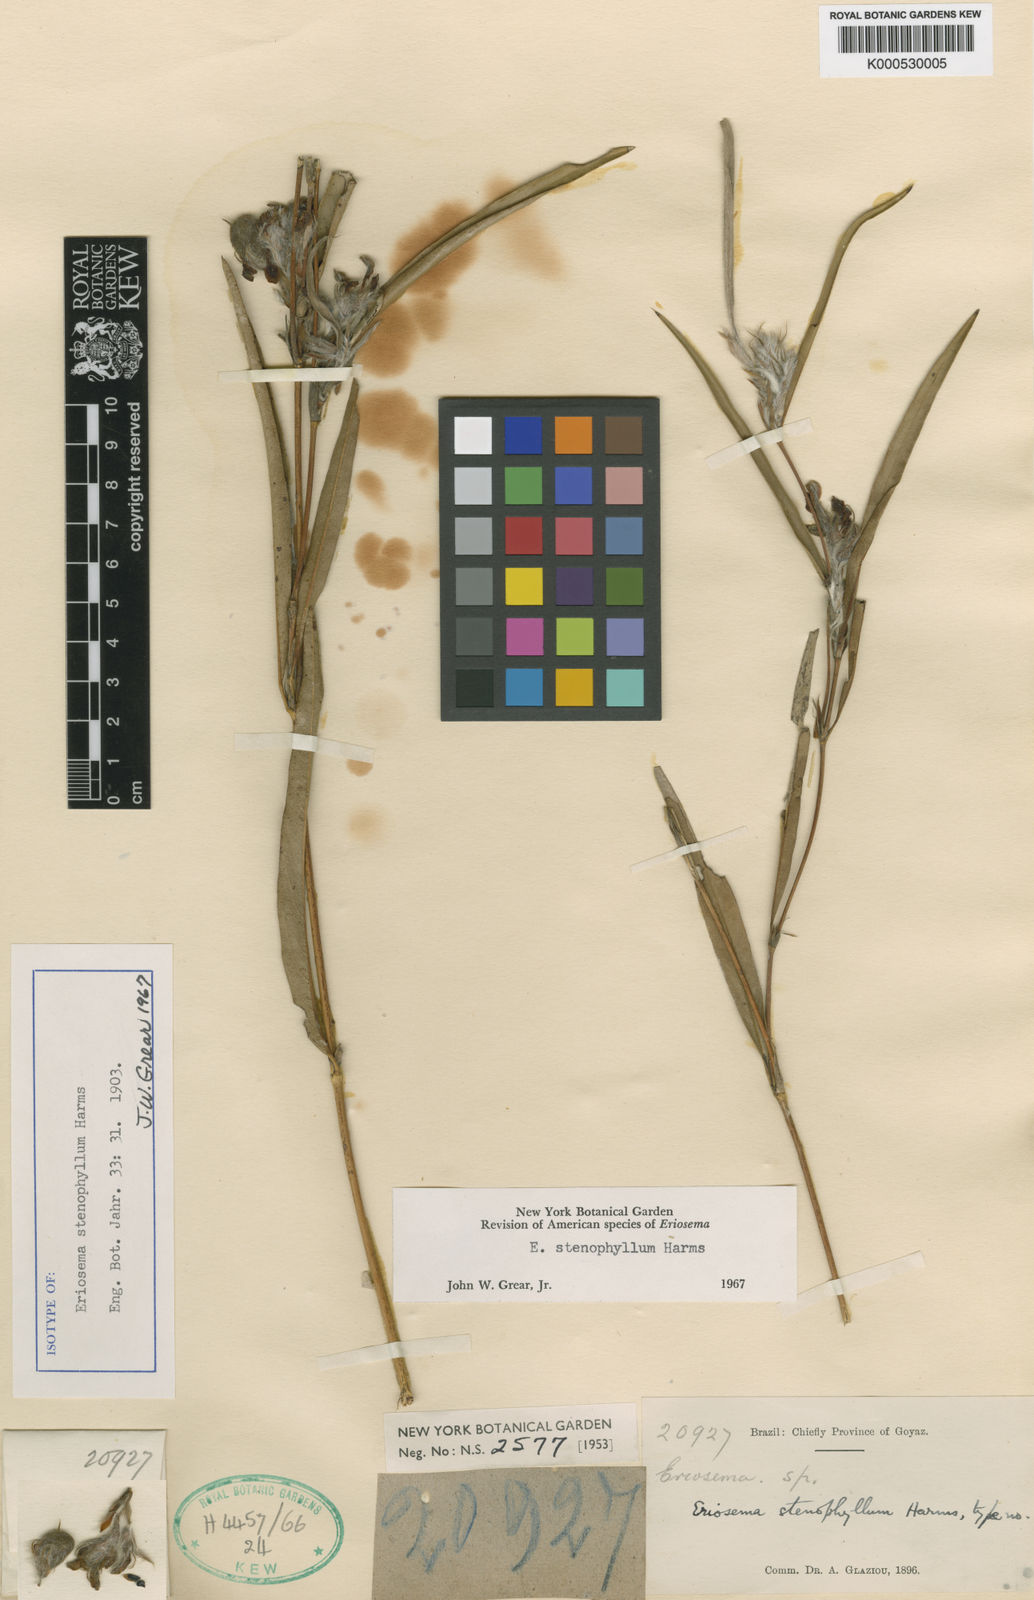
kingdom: Plantae
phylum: Tracheophyta
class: Magnoliopsida
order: Fabales
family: Fabaceae
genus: Eriosema
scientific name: Eriosema stenophyllum
